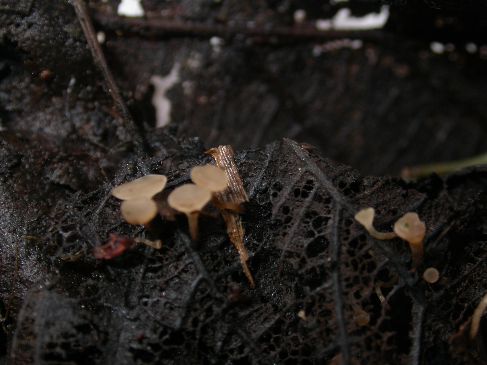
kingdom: Fungi
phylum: Ascomycota
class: Leotiomycetes
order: Helotiales
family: Rutstroemiaceae
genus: Rutstroemia
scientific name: Rutstroemia conformata
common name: elleblads-brunskive
